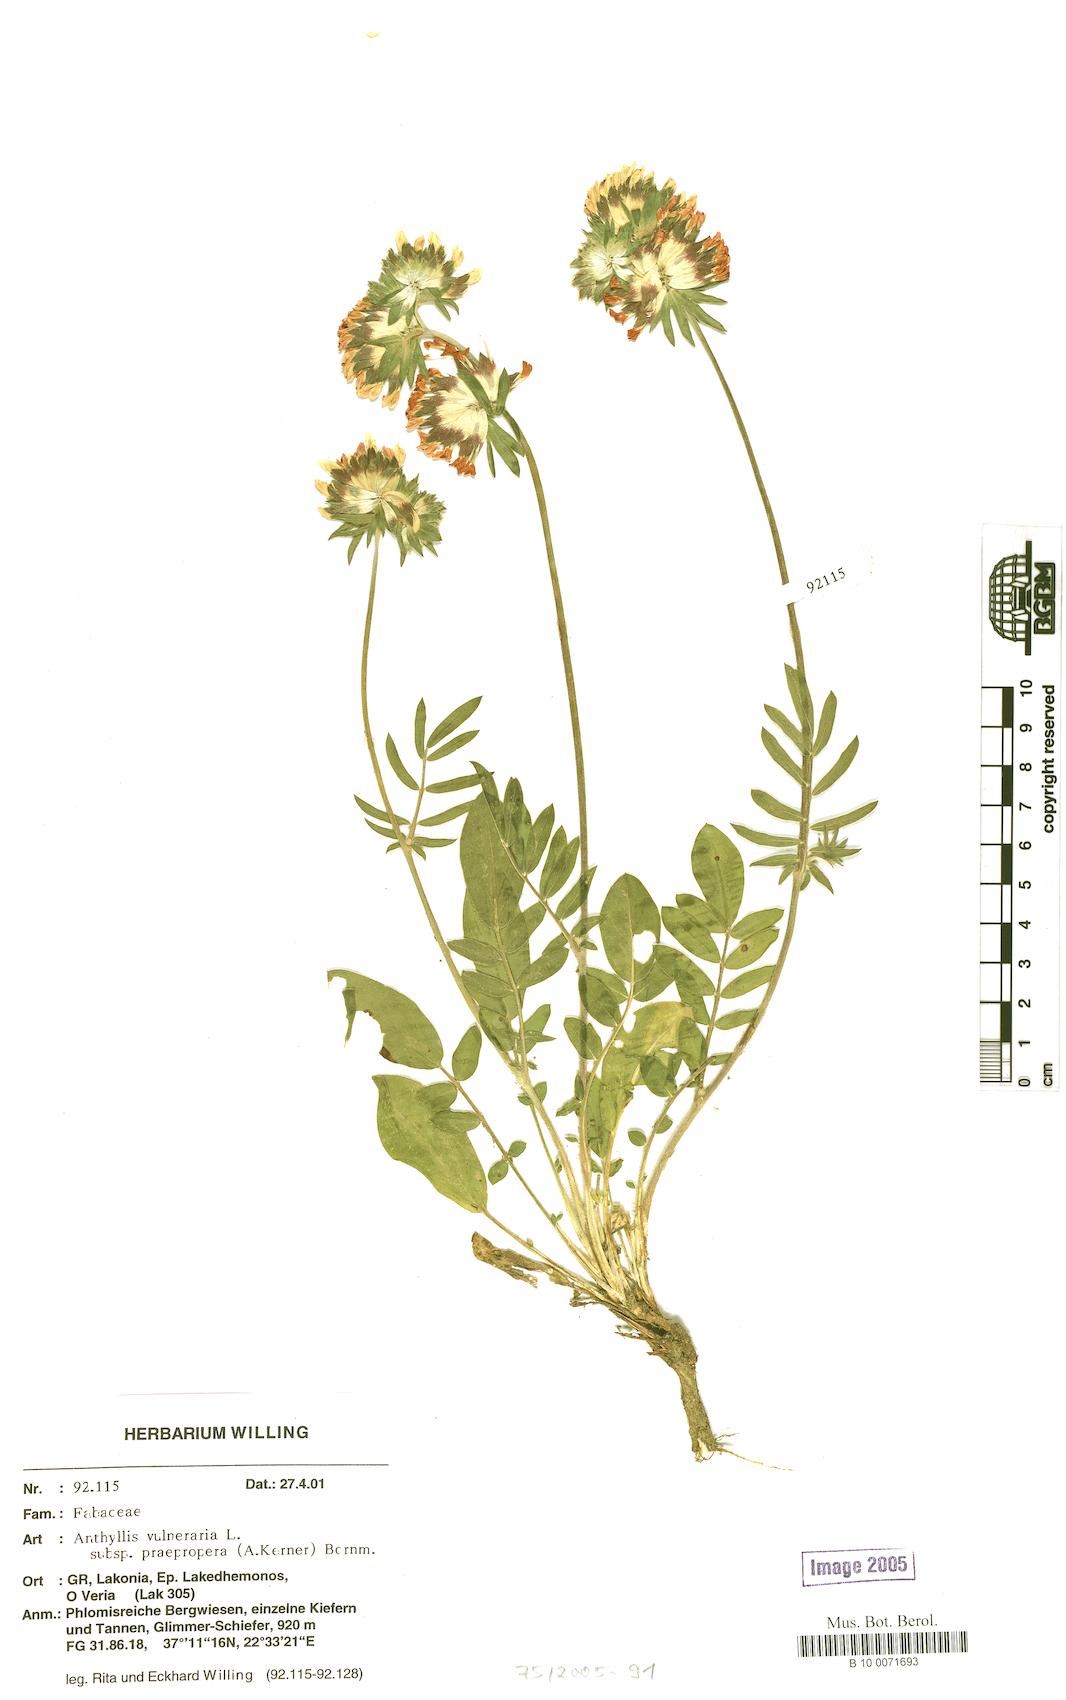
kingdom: Plantae
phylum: Tracheophyta
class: Magnoliopsida
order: Fabales
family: Fabaceae
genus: Anthyllis
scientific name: Anthyllis vulneraria
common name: Kidney vetch
